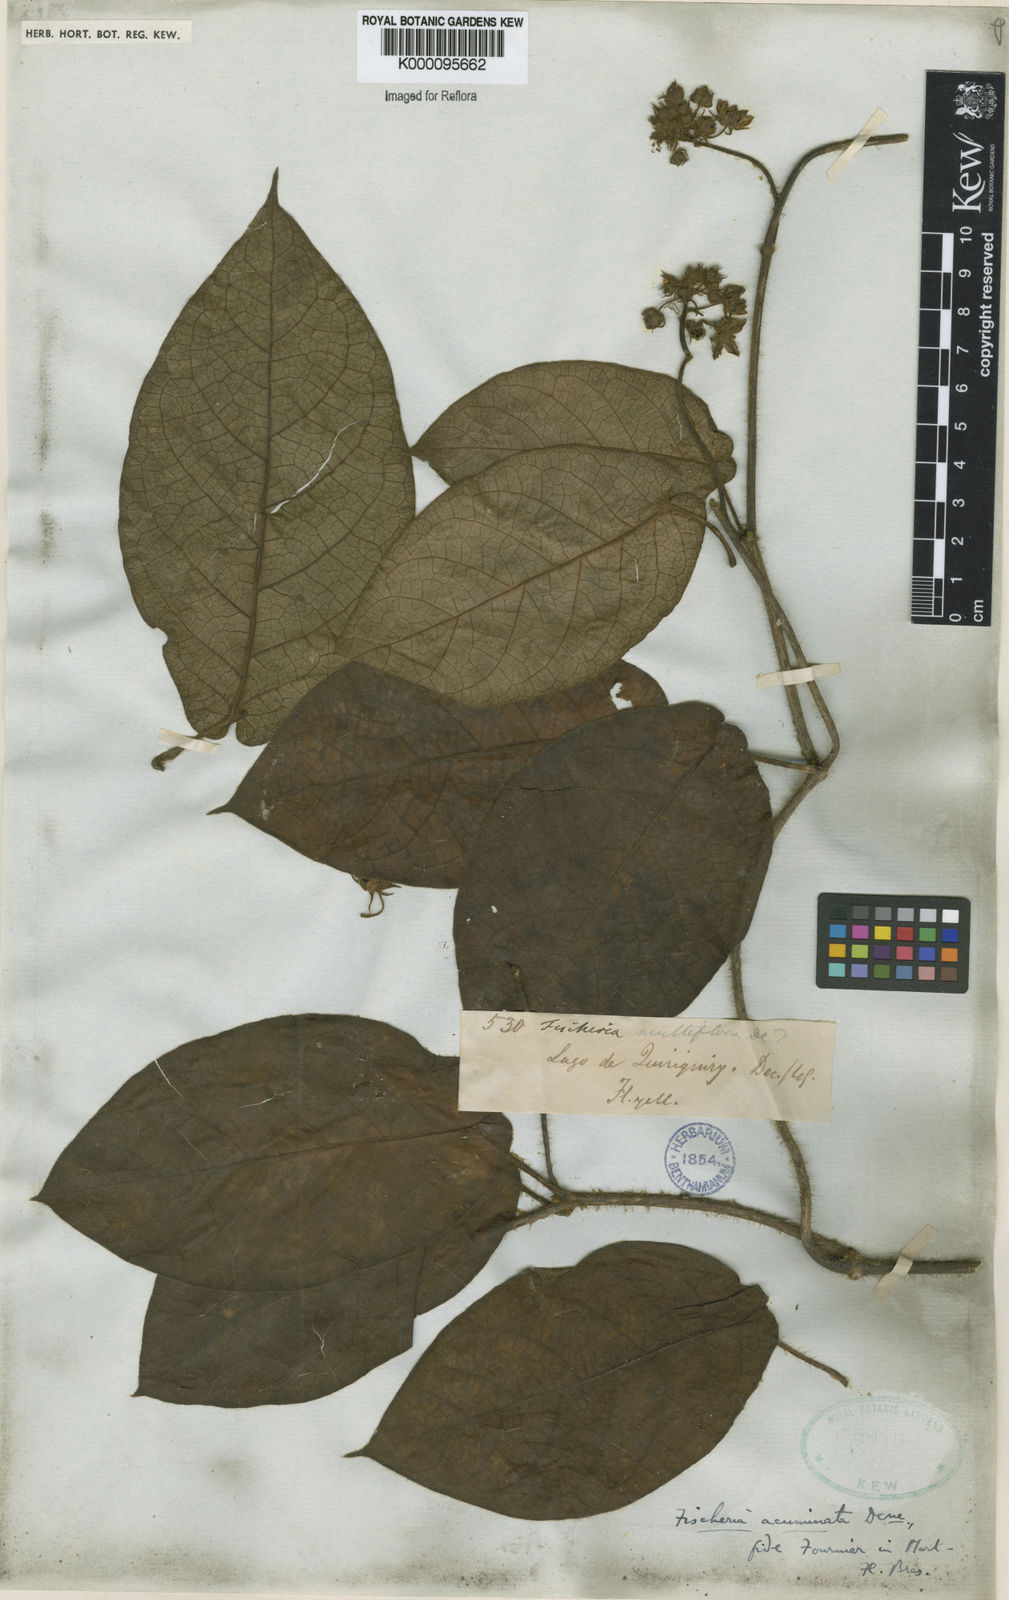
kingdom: Plantae
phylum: Tracheophyta
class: Magnoliopsida
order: Gentianales
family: Apocynaceae
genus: Fischeria
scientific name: Fischeria stellata
